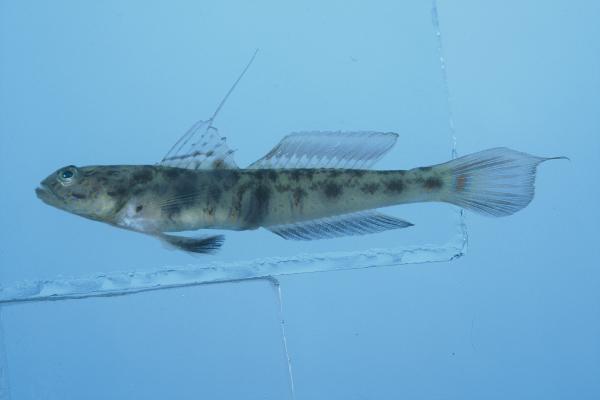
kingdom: Animalia
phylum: Chordata
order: Perciformes
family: Gobiidae
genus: Vanderhorstia
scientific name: Vanderhorstia ornatissima
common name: Blue-barred shrimp-goby
